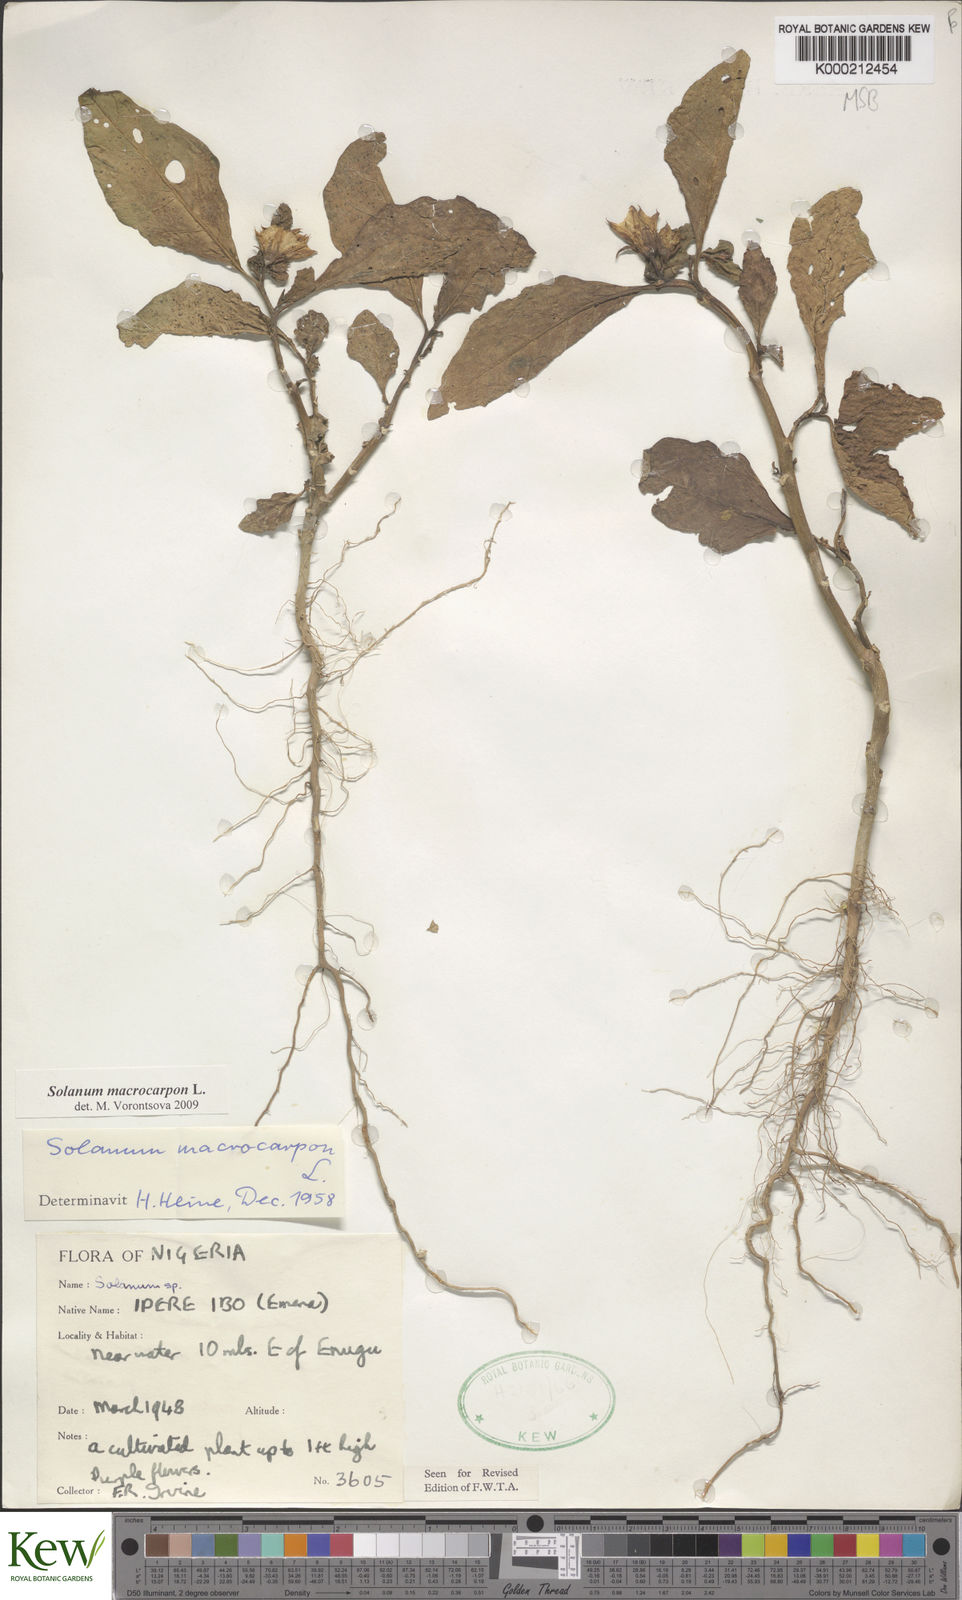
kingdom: Plantae
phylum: Tracheophyta
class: Magnoliopsida
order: Solanales
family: Solanaceae
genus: Solanum
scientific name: Solanum macrocarpon
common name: African eggplant
